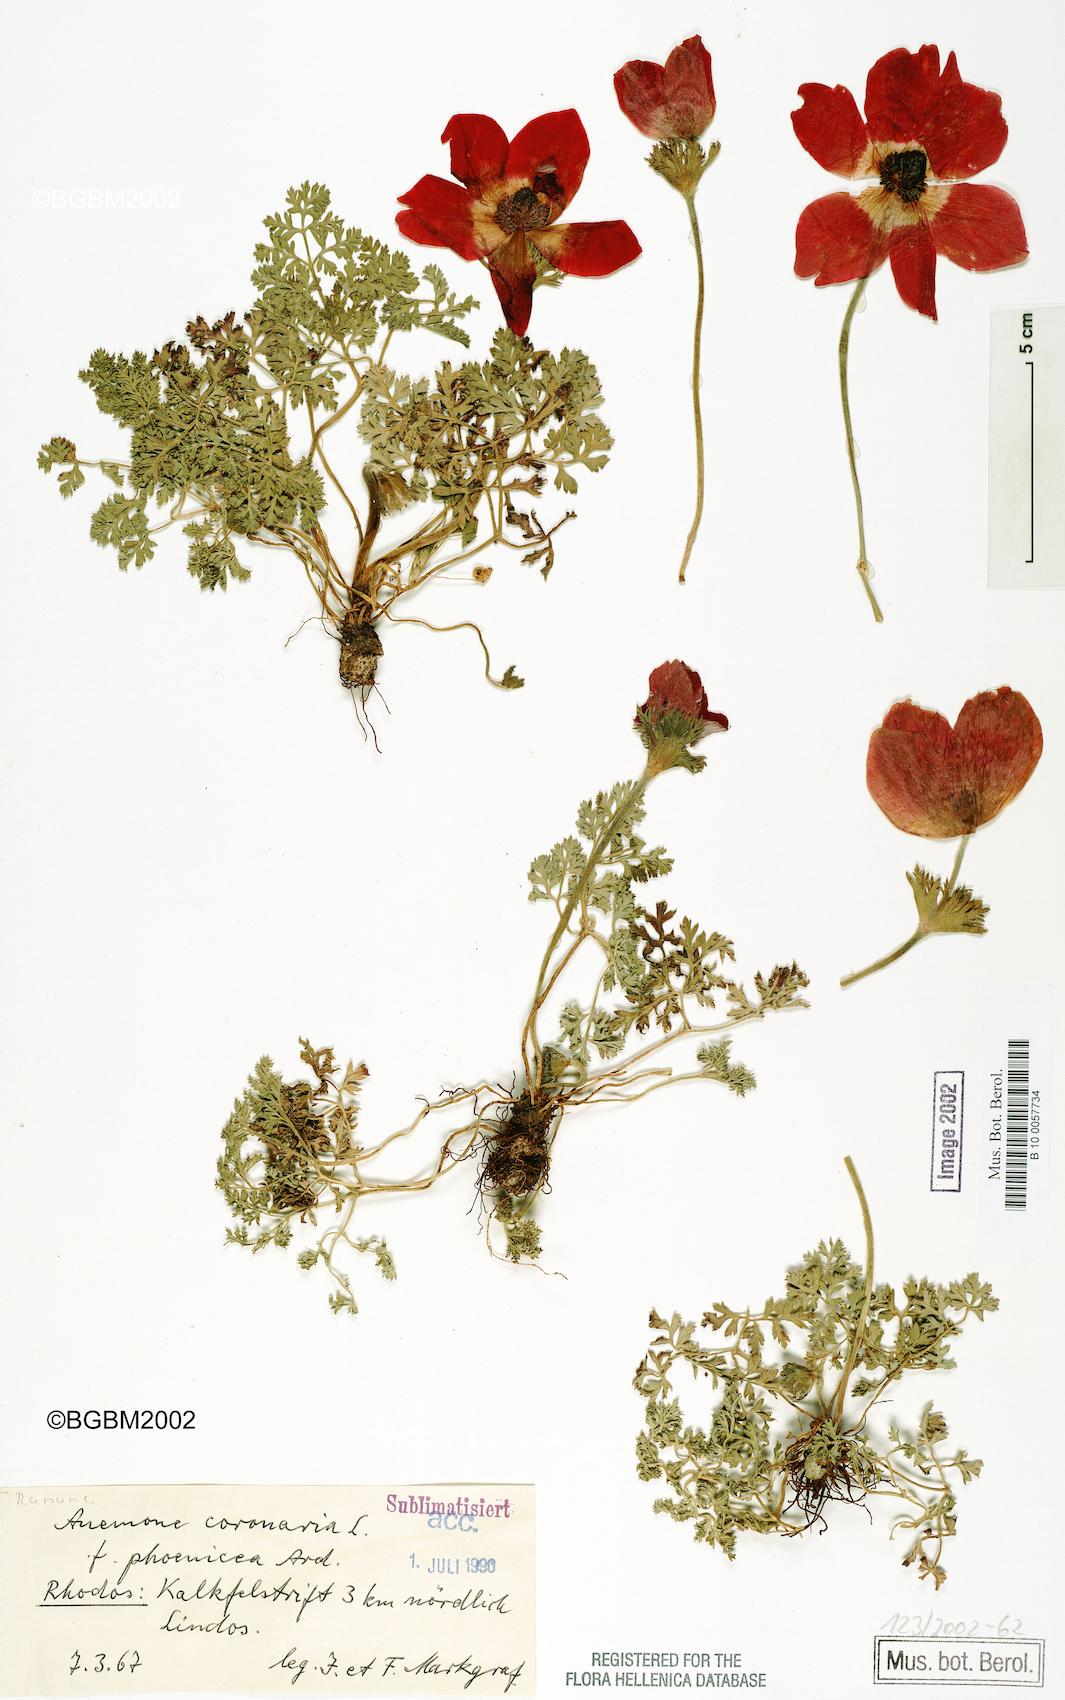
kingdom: Plantae
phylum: Tracheophyta
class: Magnoliopsida
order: Ranunculales
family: Ranunculaceae
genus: Anemone
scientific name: Anemone coronaria
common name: Poppy anemone
